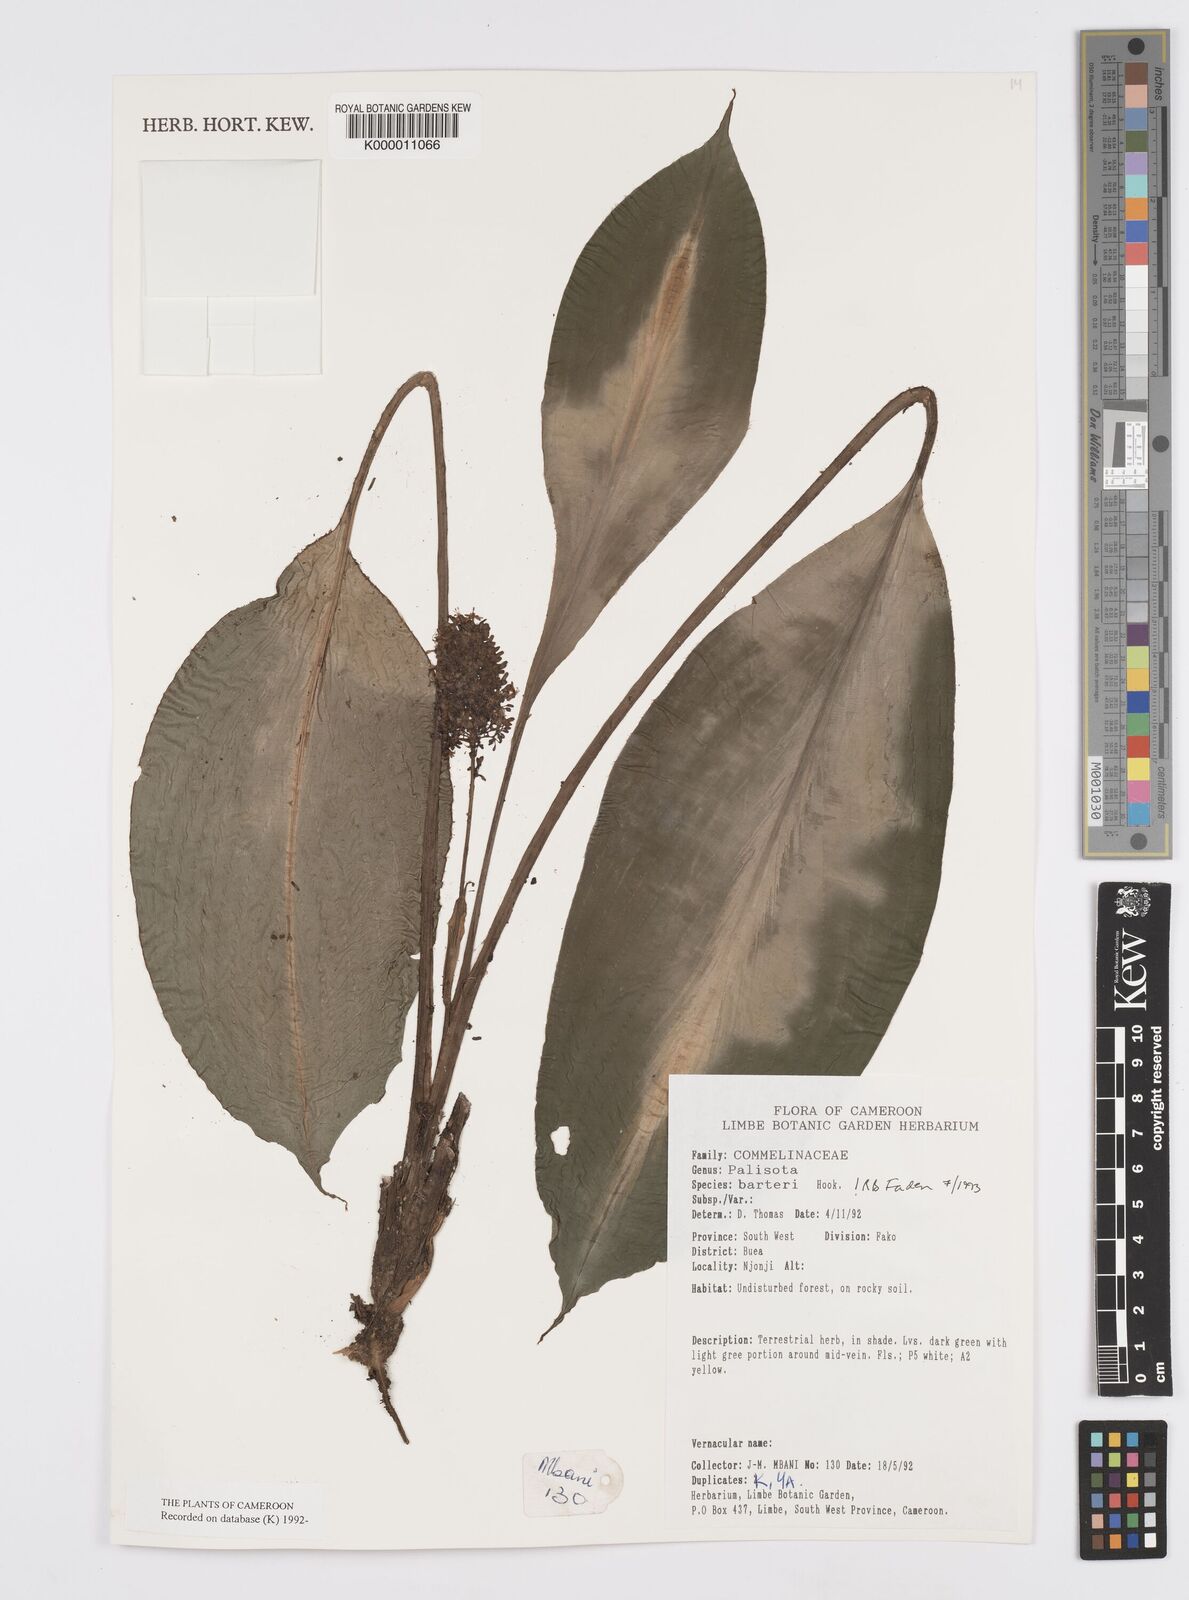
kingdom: Plantae
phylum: Tracheophyta
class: Magnoliopsida
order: Santalales
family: Erythropalaceae
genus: Heisteria
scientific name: Heisteria parvifolia
